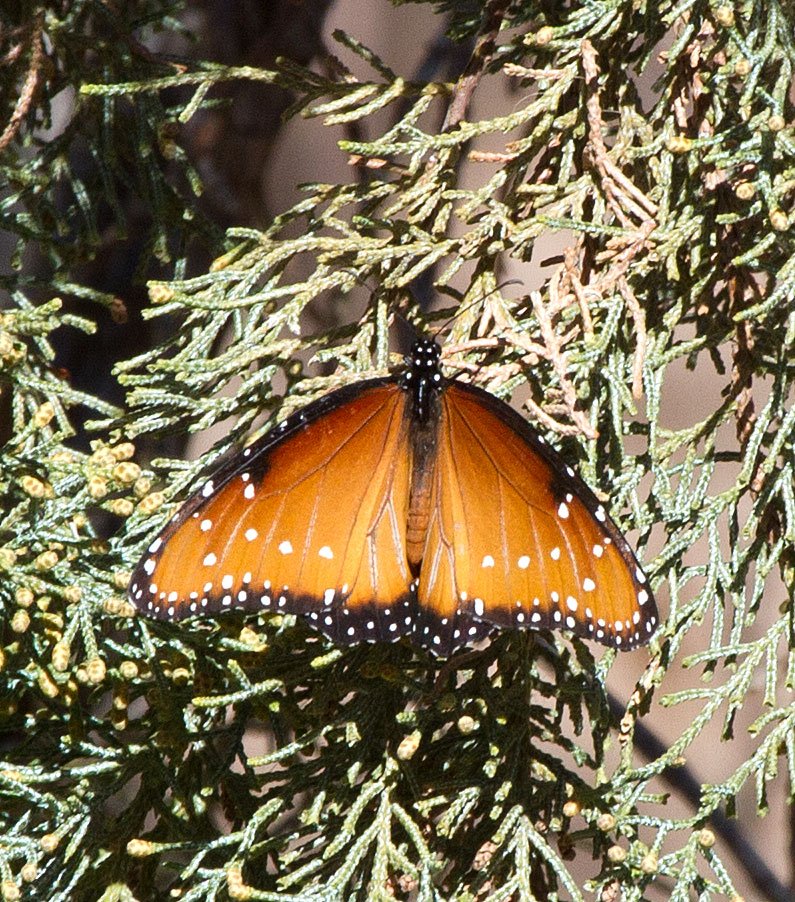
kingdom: Animalia
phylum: Arthropoda
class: Insecta
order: Lepidoptera
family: Nymphalidae
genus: Danaus
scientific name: Danaus gilippus
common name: Queen
